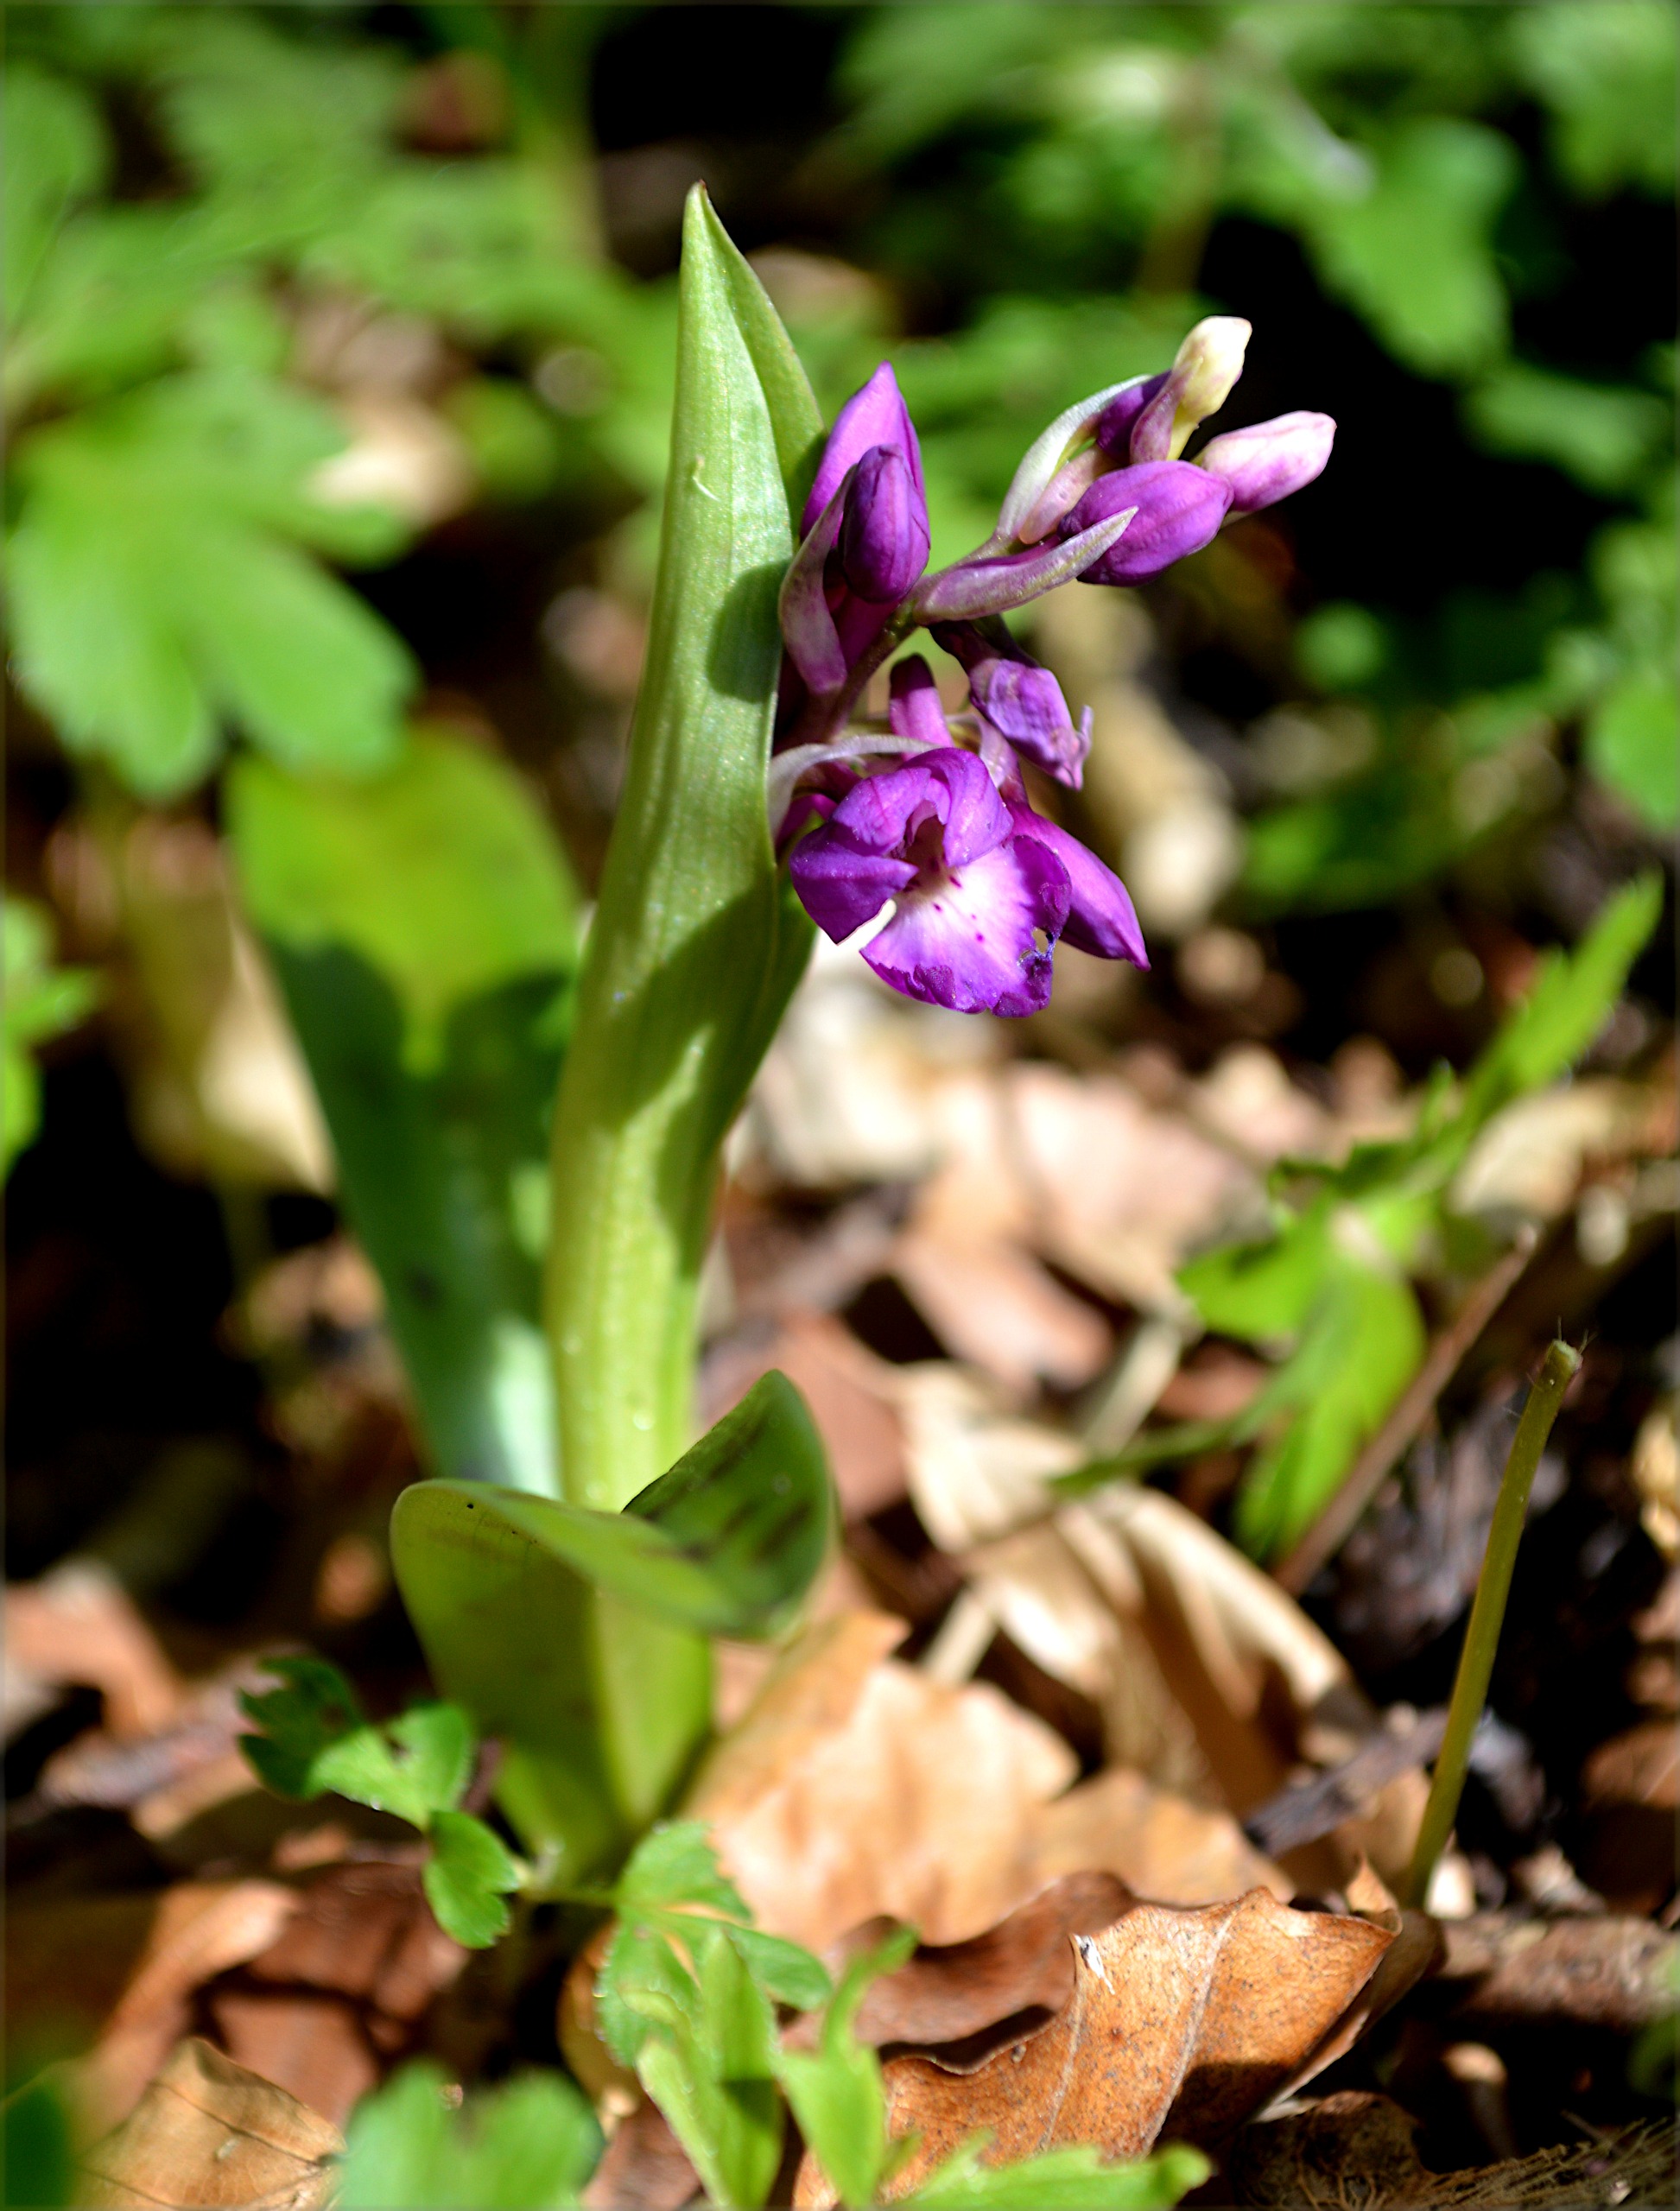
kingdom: Plantae
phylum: Tracheophyta
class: Liliopsida
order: Asparagales
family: Orchidaceae
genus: Orchis
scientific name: Orchis mascula
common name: Tyndakset gøgeurt
